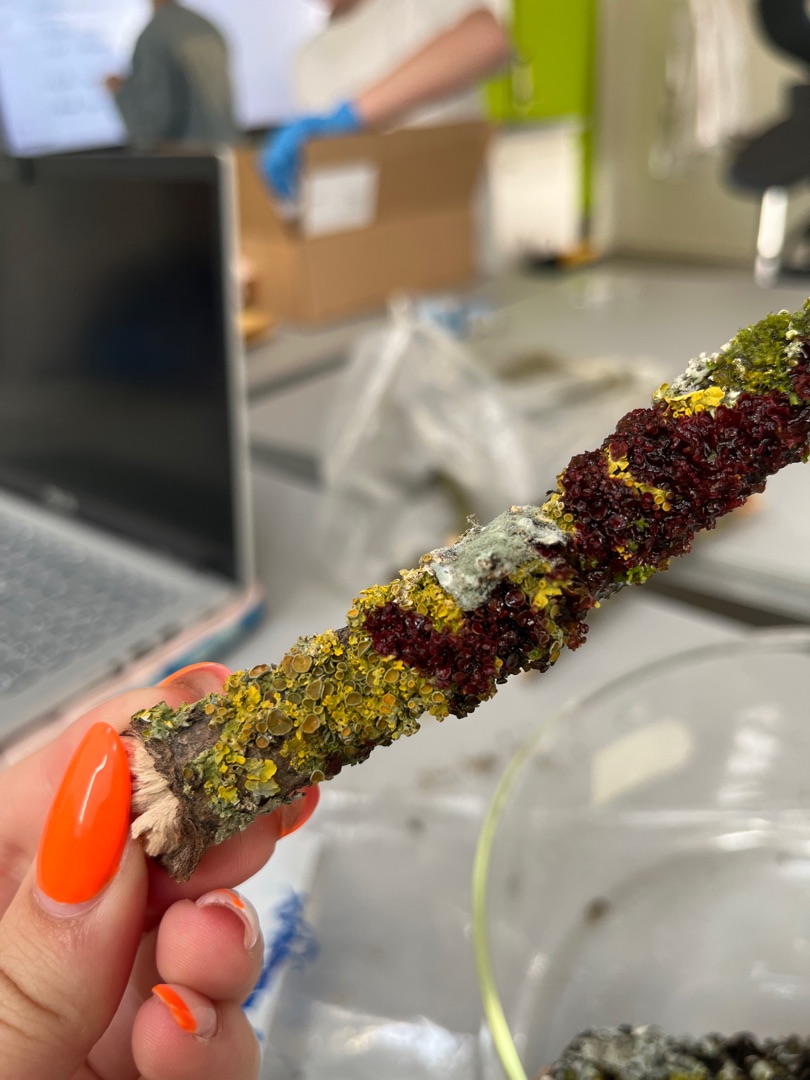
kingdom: Fungi
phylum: Ascomycota
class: Lecanoromycetes
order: Teloschistales
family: Teloschistaceae
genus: Xanthoria
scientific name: Xanthoria parietina
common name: Almindelig væggelav
